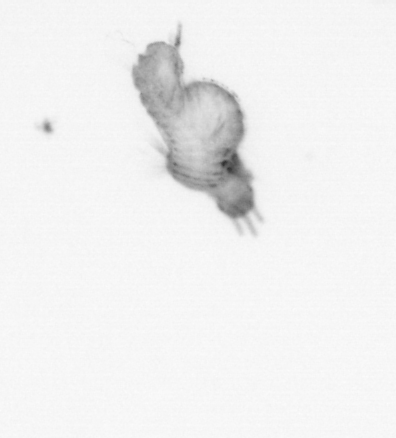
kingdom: Animalia
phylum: Annelida
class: Polychaeta
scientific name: Polychaeta
